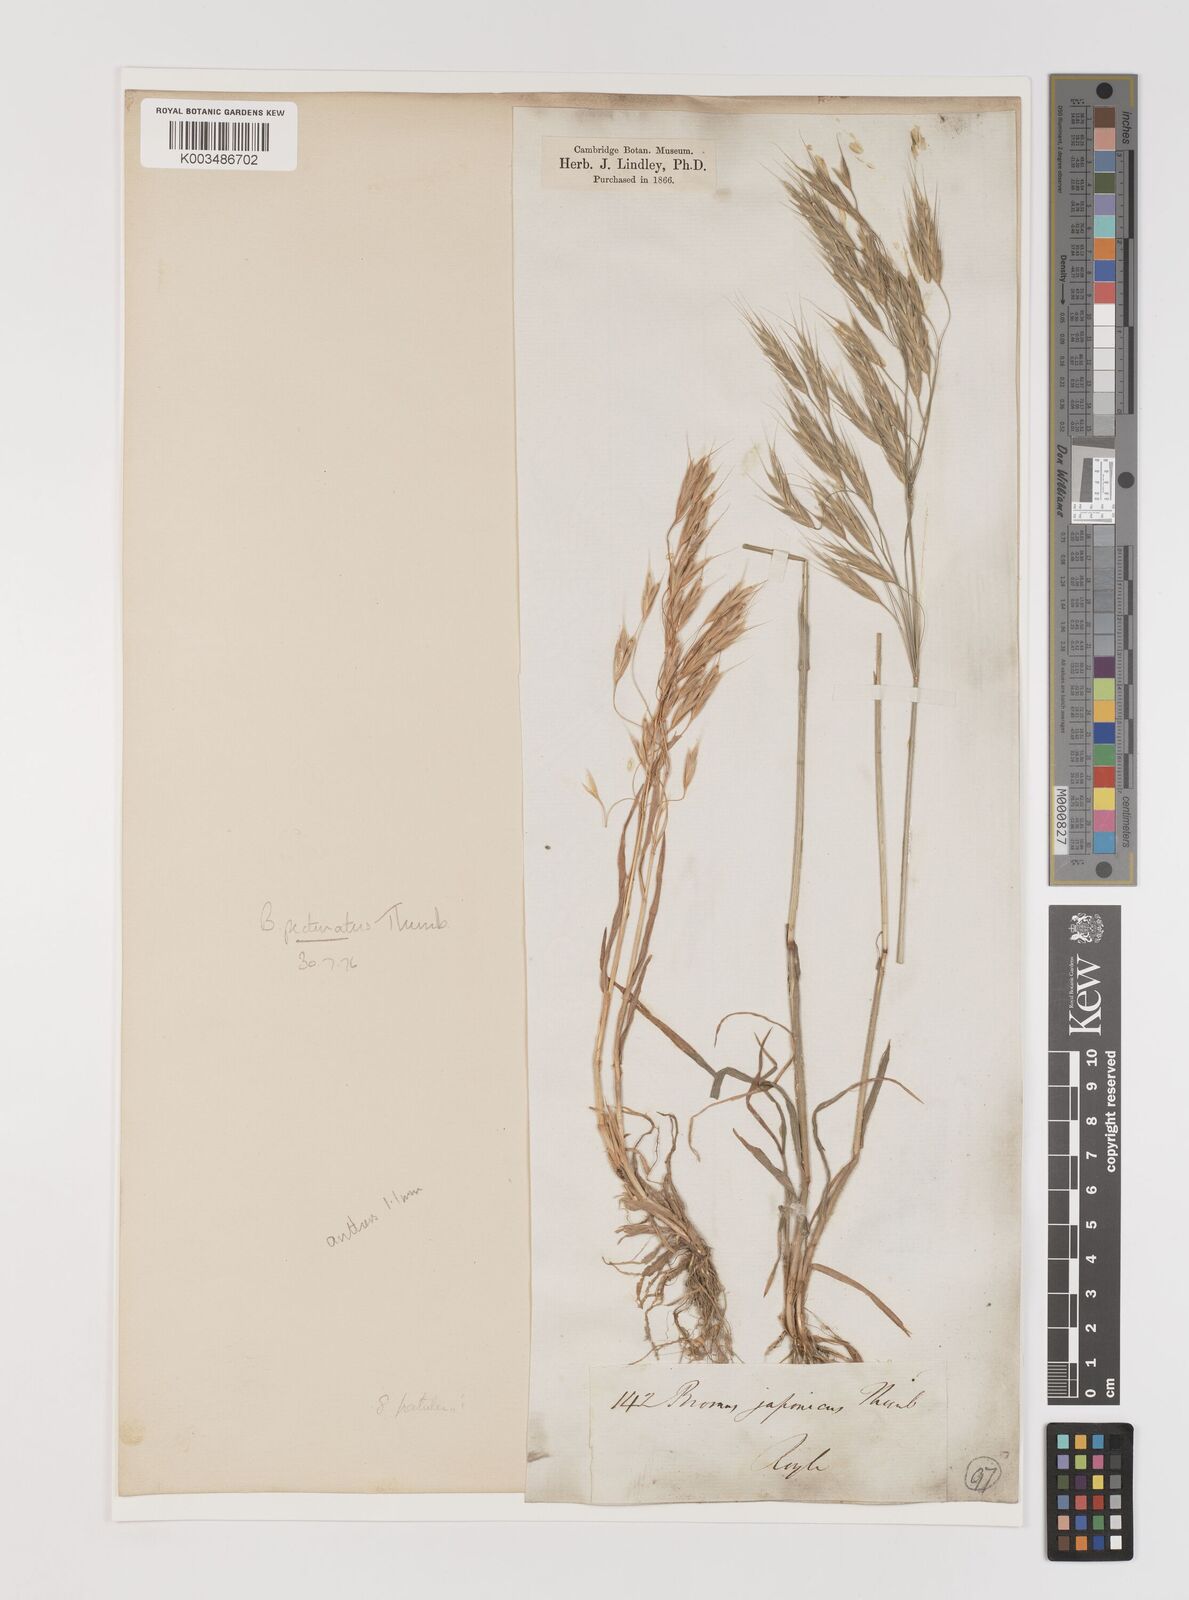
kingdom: Plantae
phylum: Tracheophyta
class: Liliopsida
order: Poales
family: Poaceae
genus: Bromus
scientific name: Bromus pectinatus
